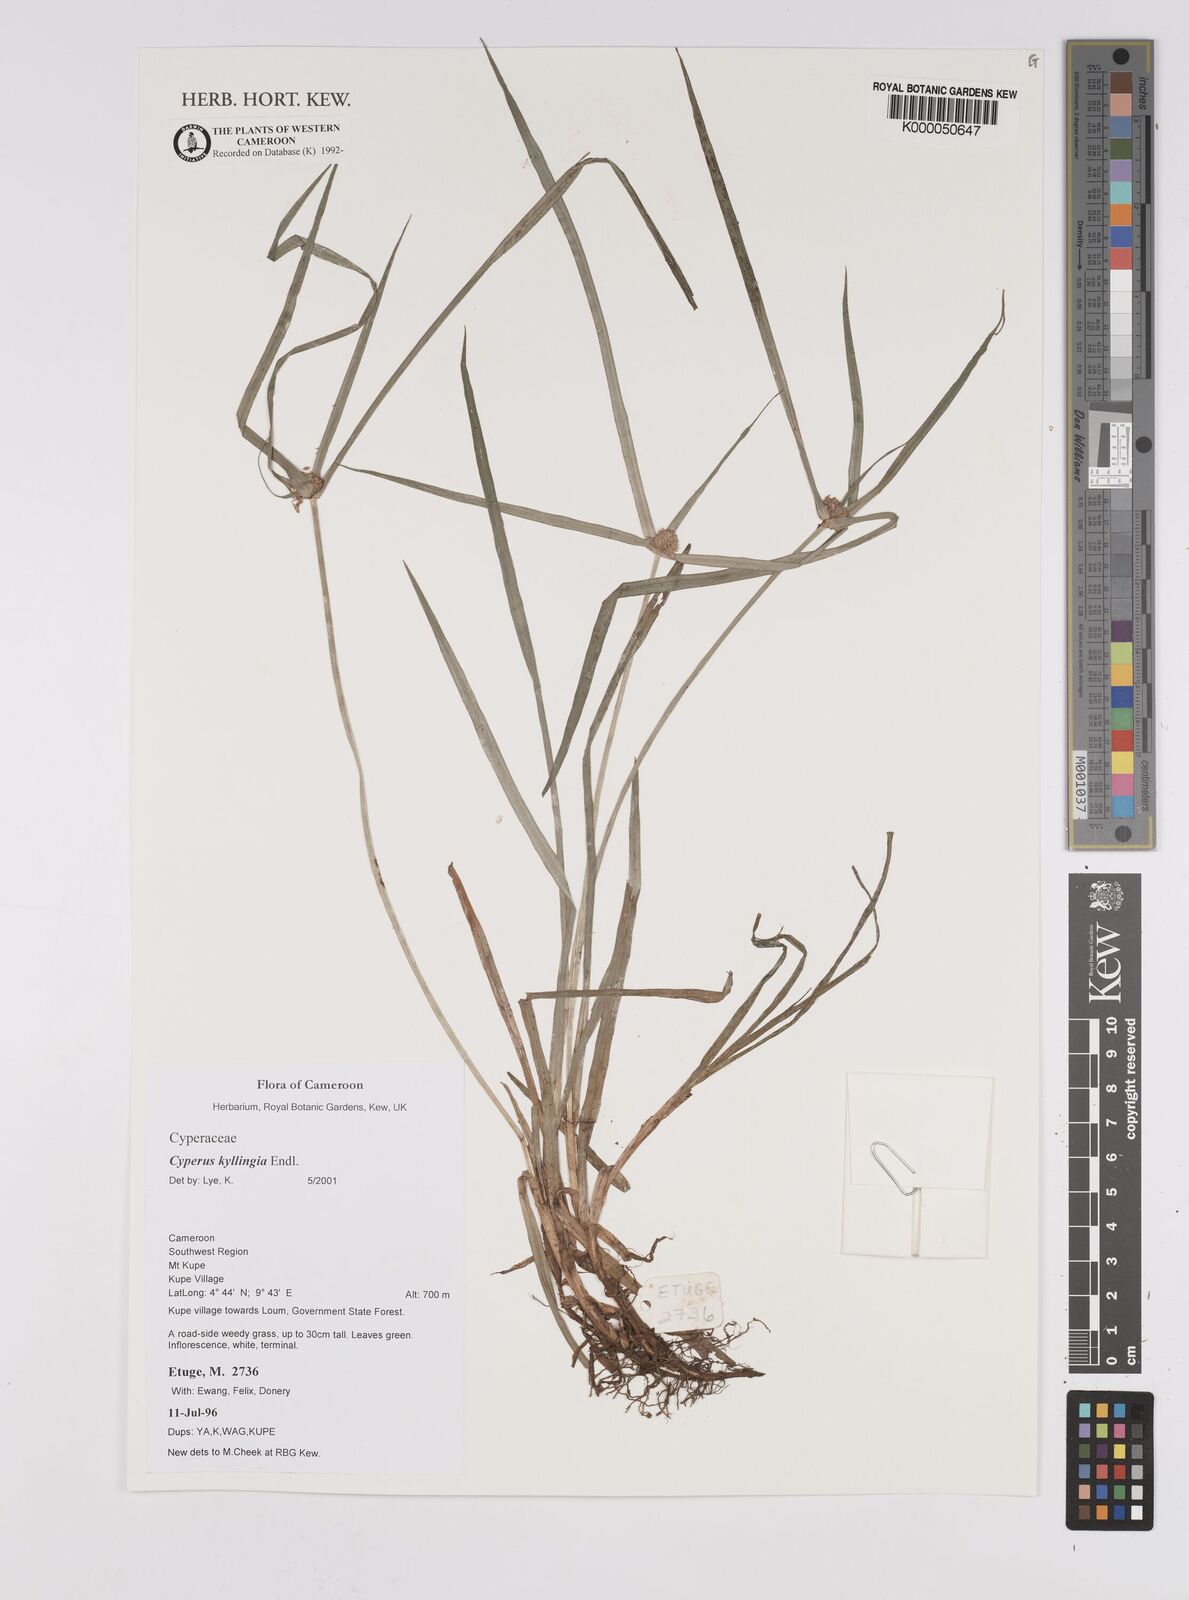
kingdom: Plantae
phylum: Tracheophyta
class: Liliopsida
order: Poales
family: Cyperaceae
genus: Rhynchospora
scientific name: Rhynchospora colorata
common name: Star sedge
